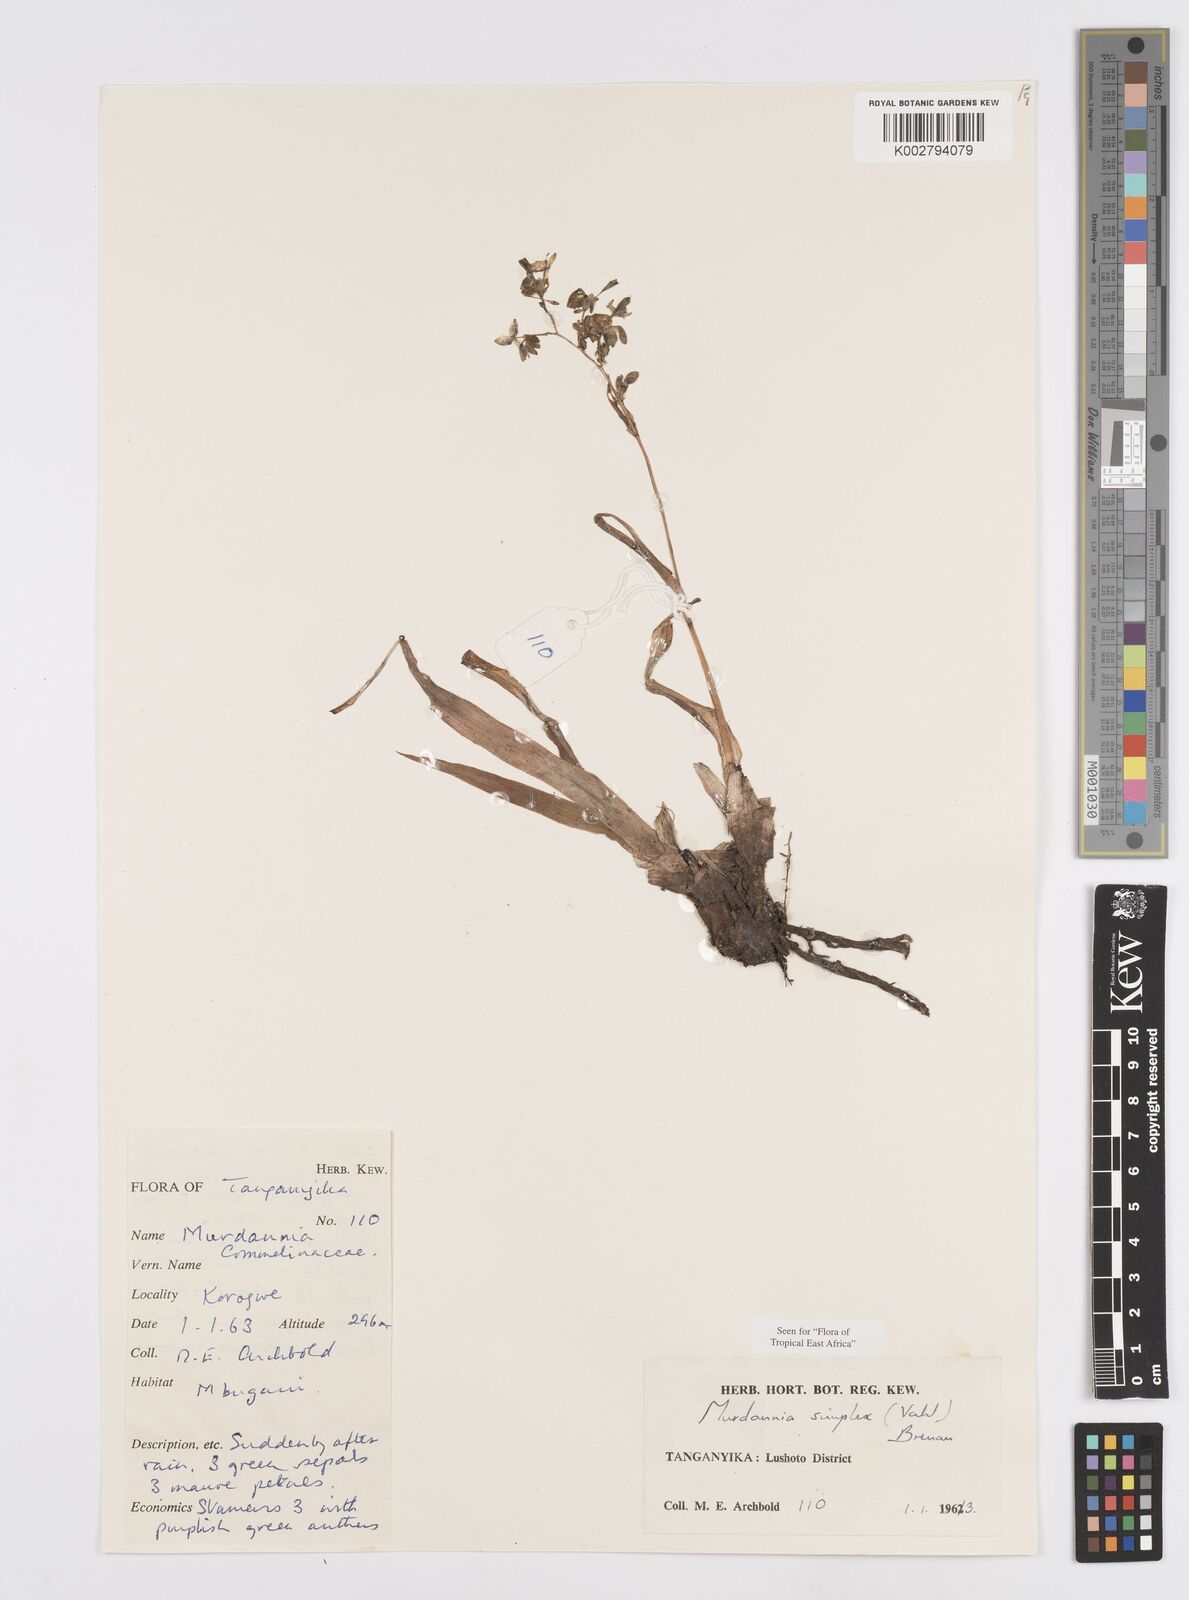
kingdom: Plantae
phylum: Tracheophyta
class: Liliopsida
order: Commelinales
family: Commelinaceae
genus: Murdannia
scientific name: Murdannia simplex
